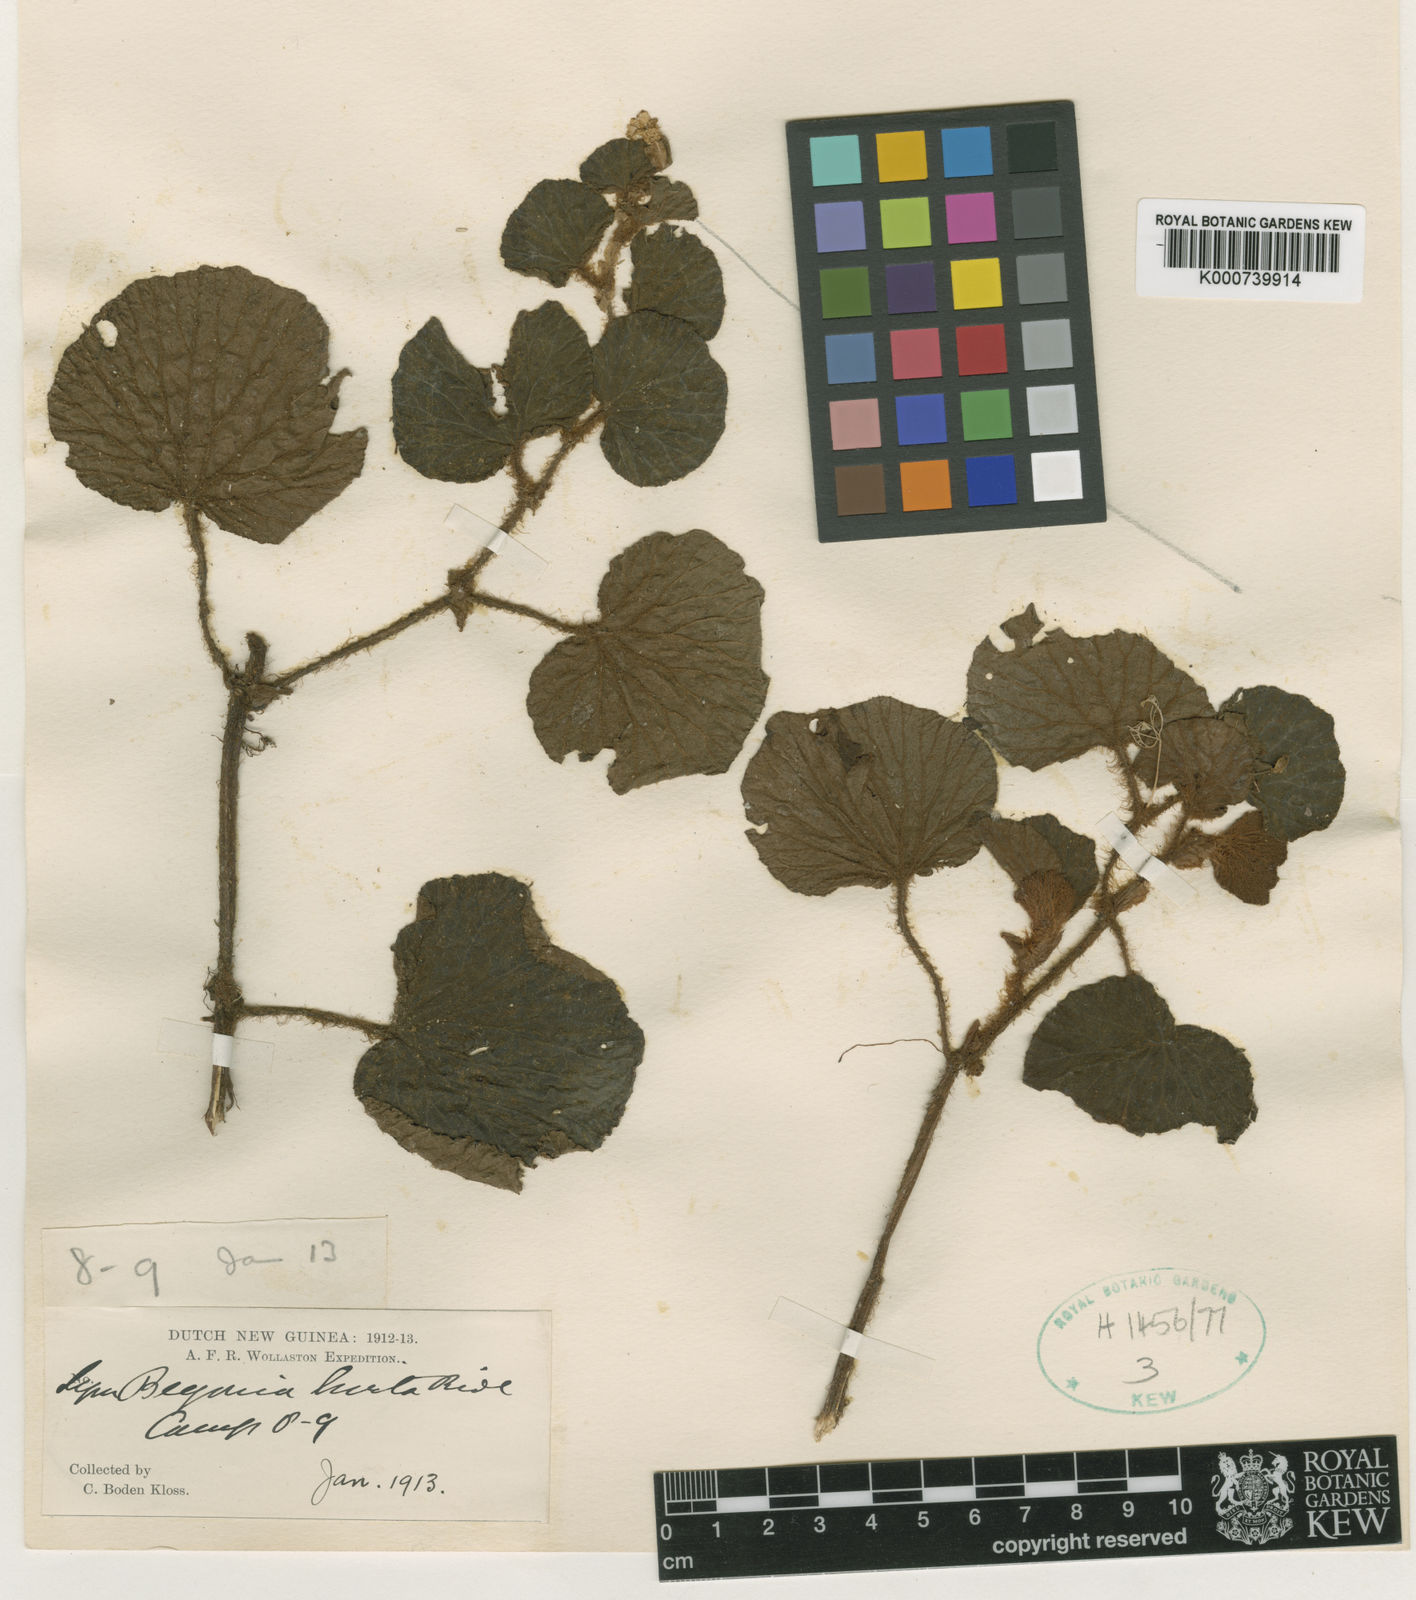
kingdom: Plantae
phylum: Tracheophyta
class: Magnoliopsida
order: Cucurbitales
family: Begoniaceae
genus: Begonia
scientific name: Begonia symhirta
